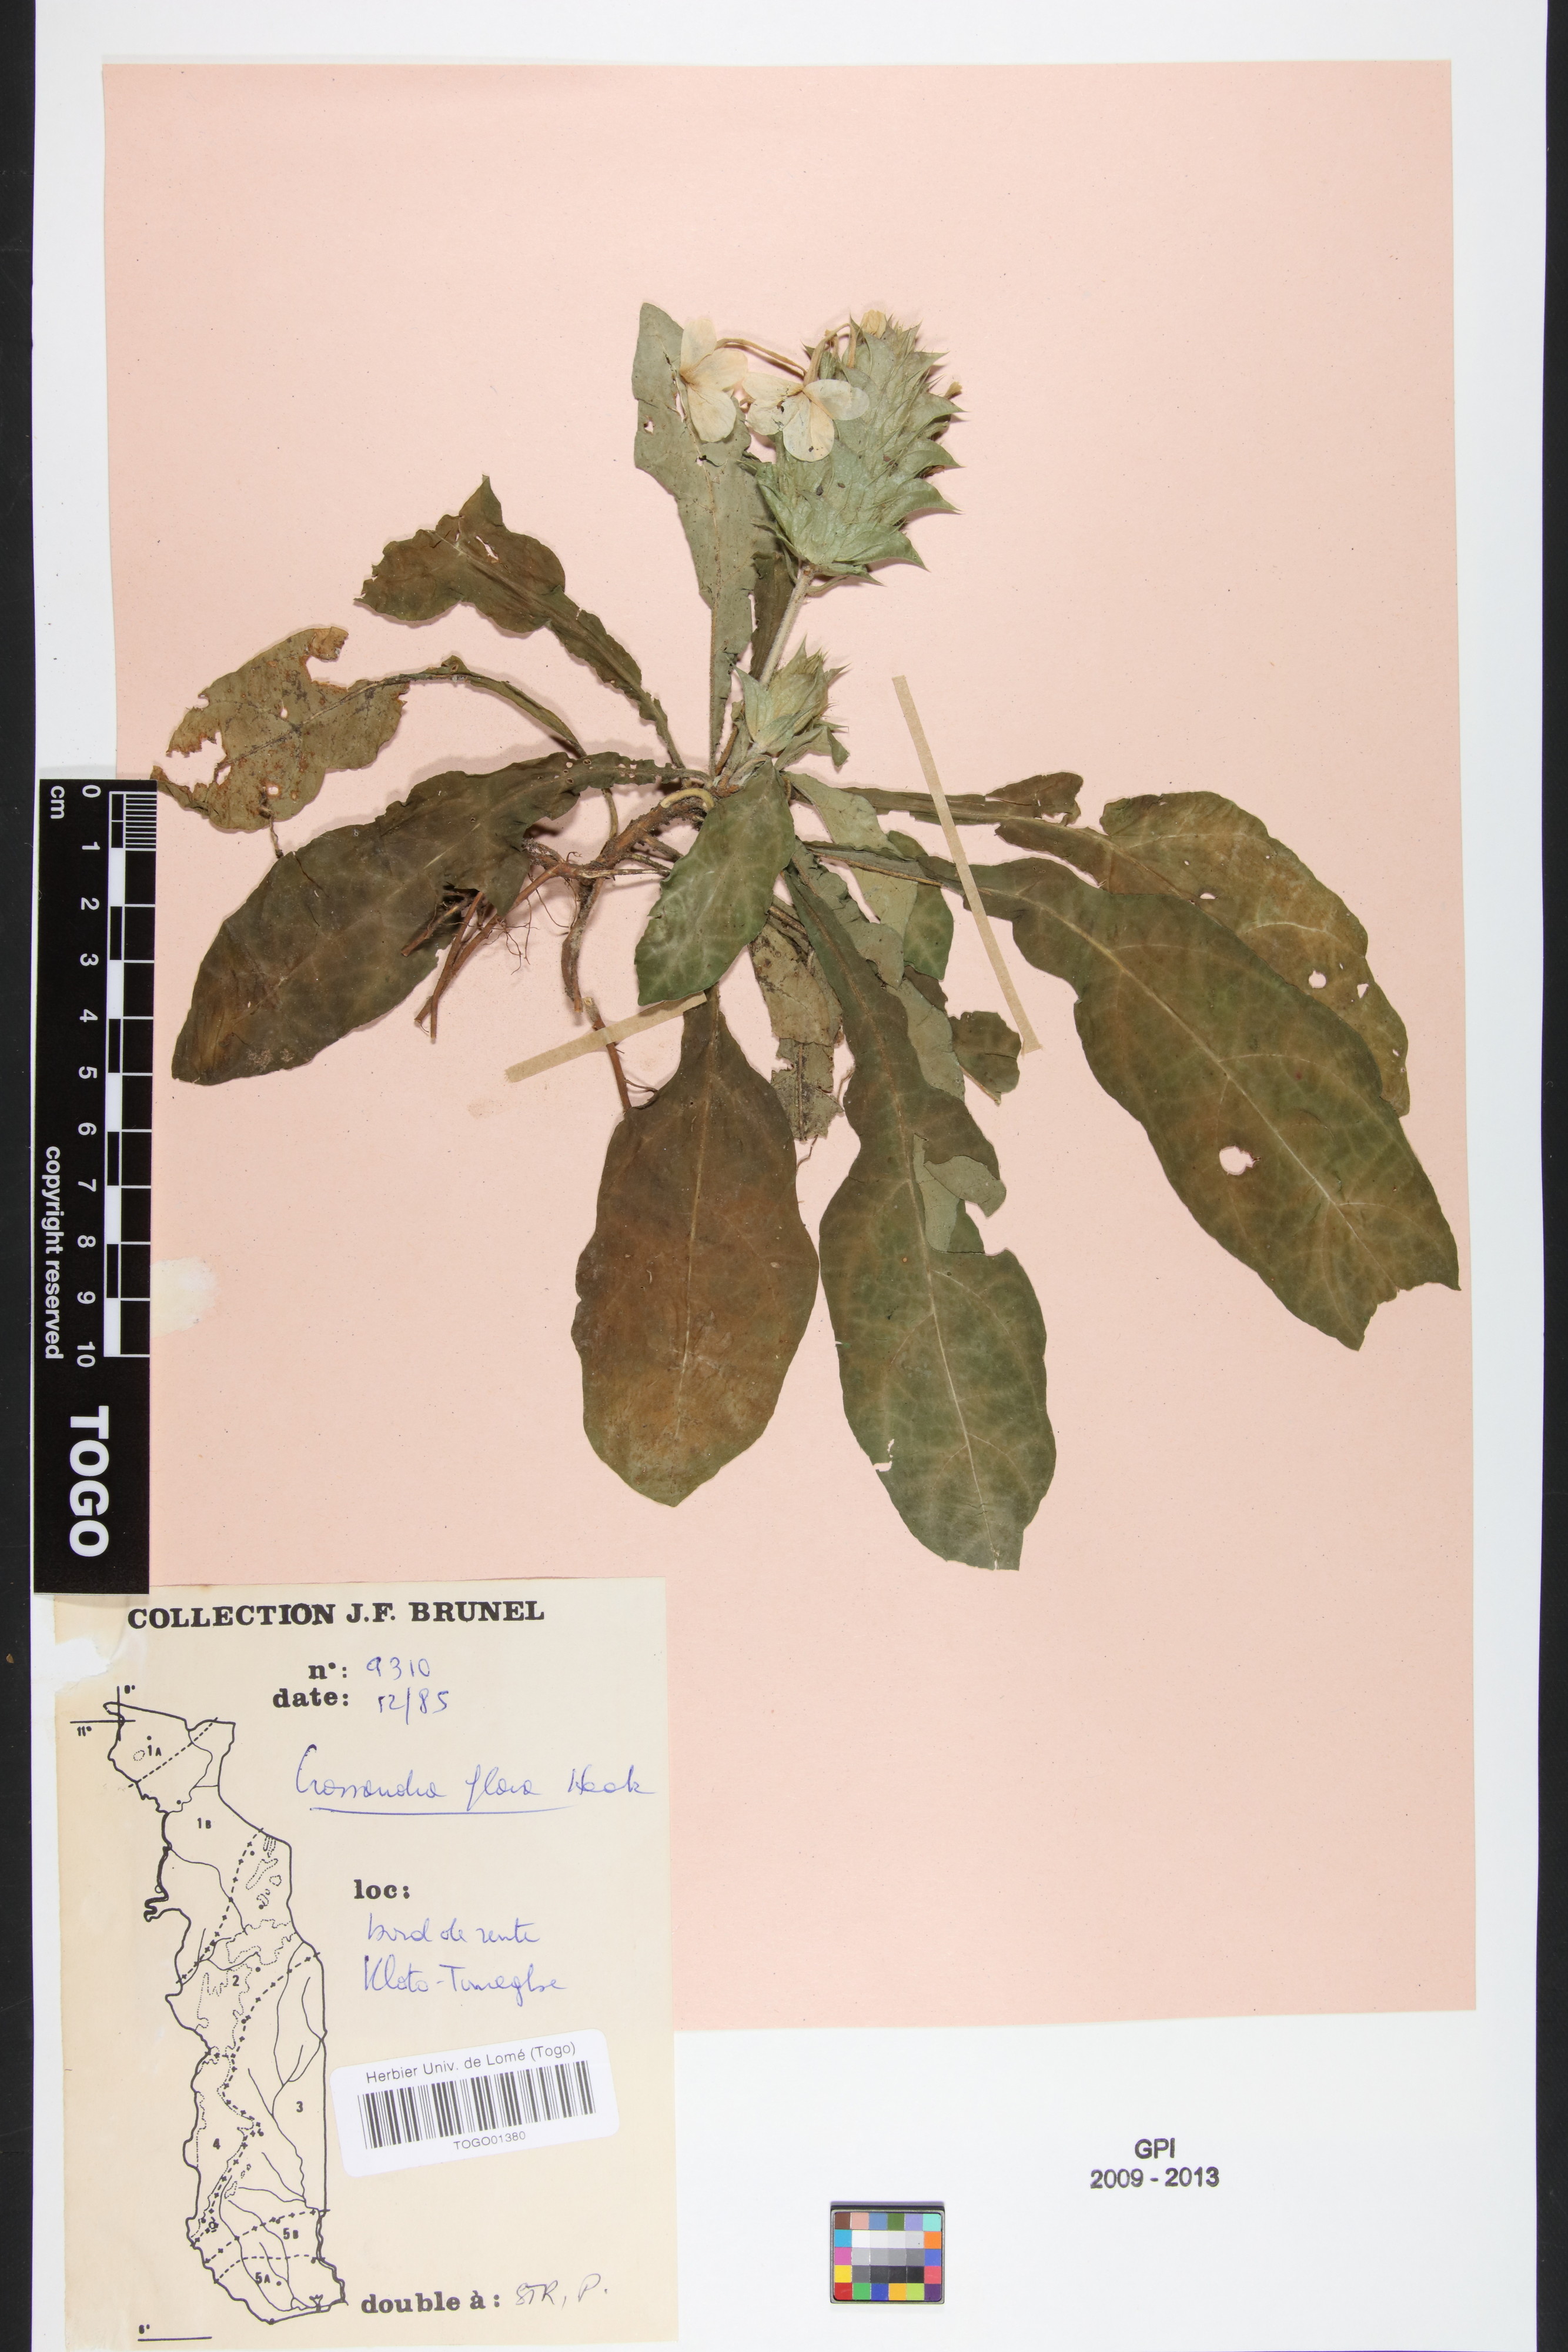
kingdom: Plantae
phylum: Tracheophyta
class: Magnoliopsida
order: Lamiales
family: Acanthaceae
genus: Crossandra
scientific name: Crossandra flava
